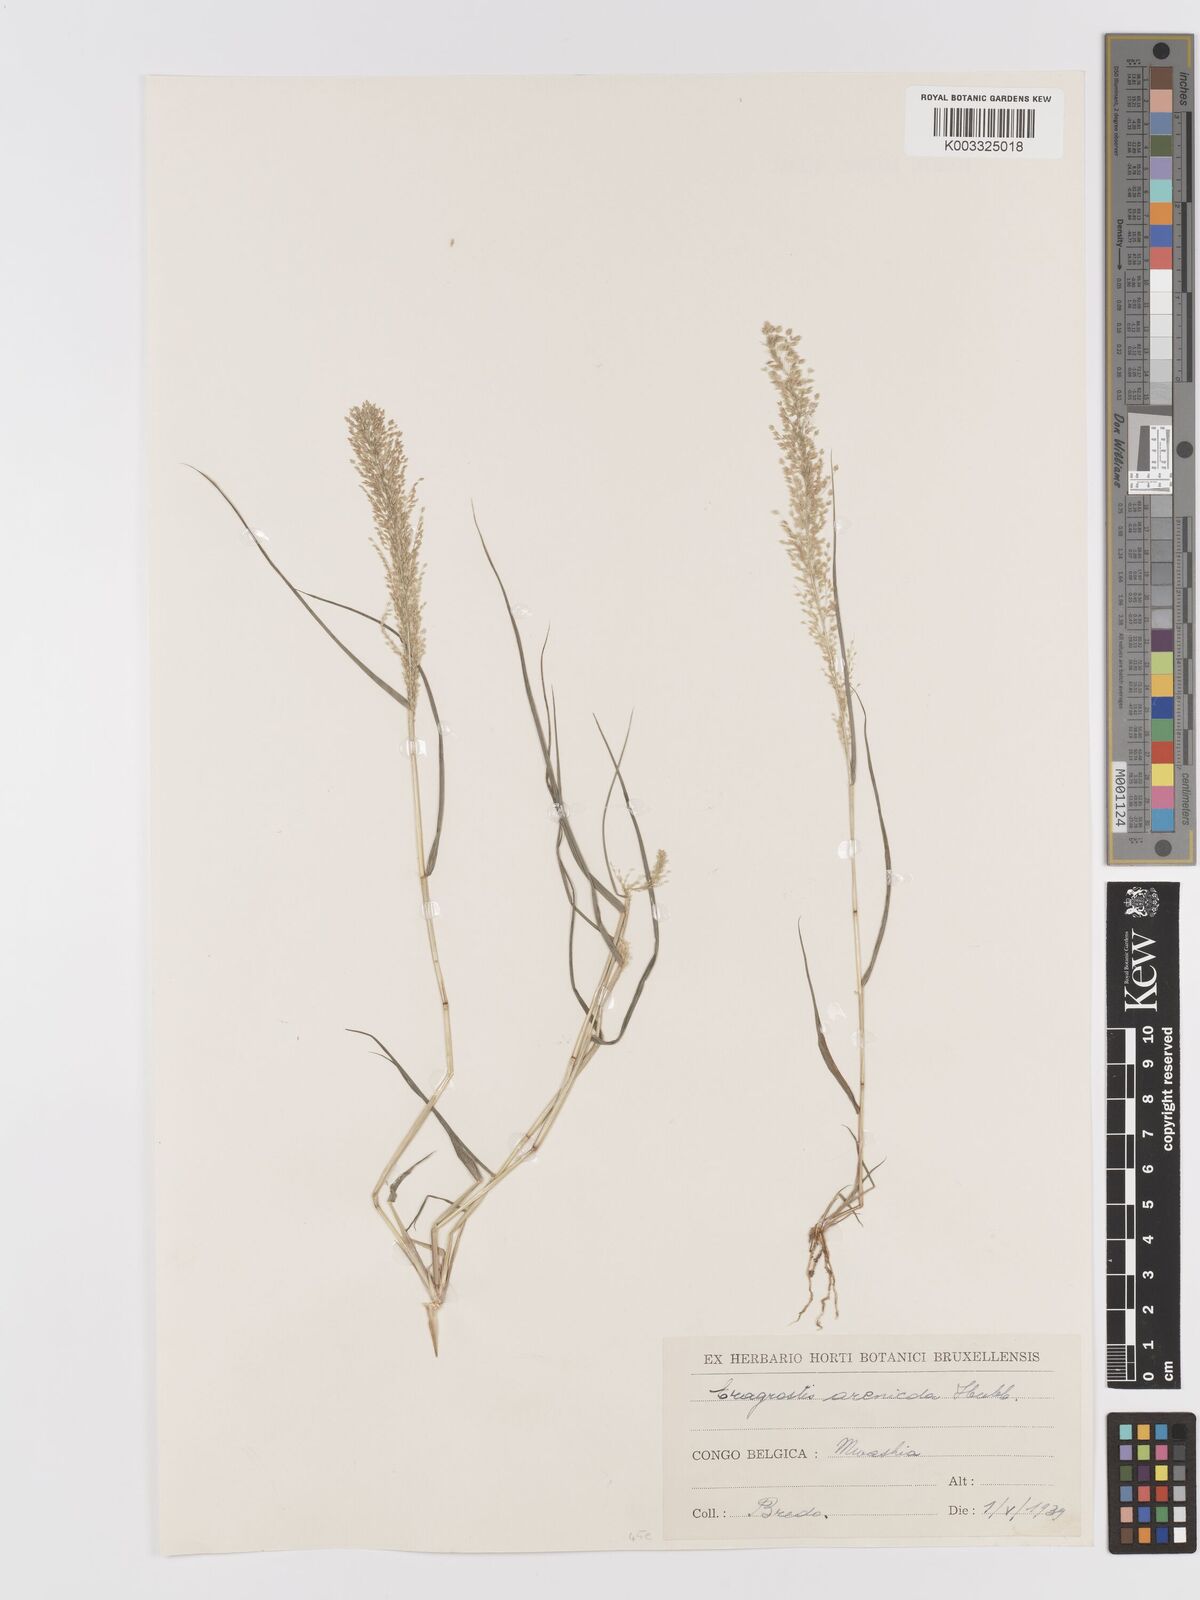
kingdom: Plantae
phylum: Tracheophyta
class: Liliopsida
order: Poales
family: Poaceae
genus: Eragrostis
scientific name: Eragrostis arenicola
